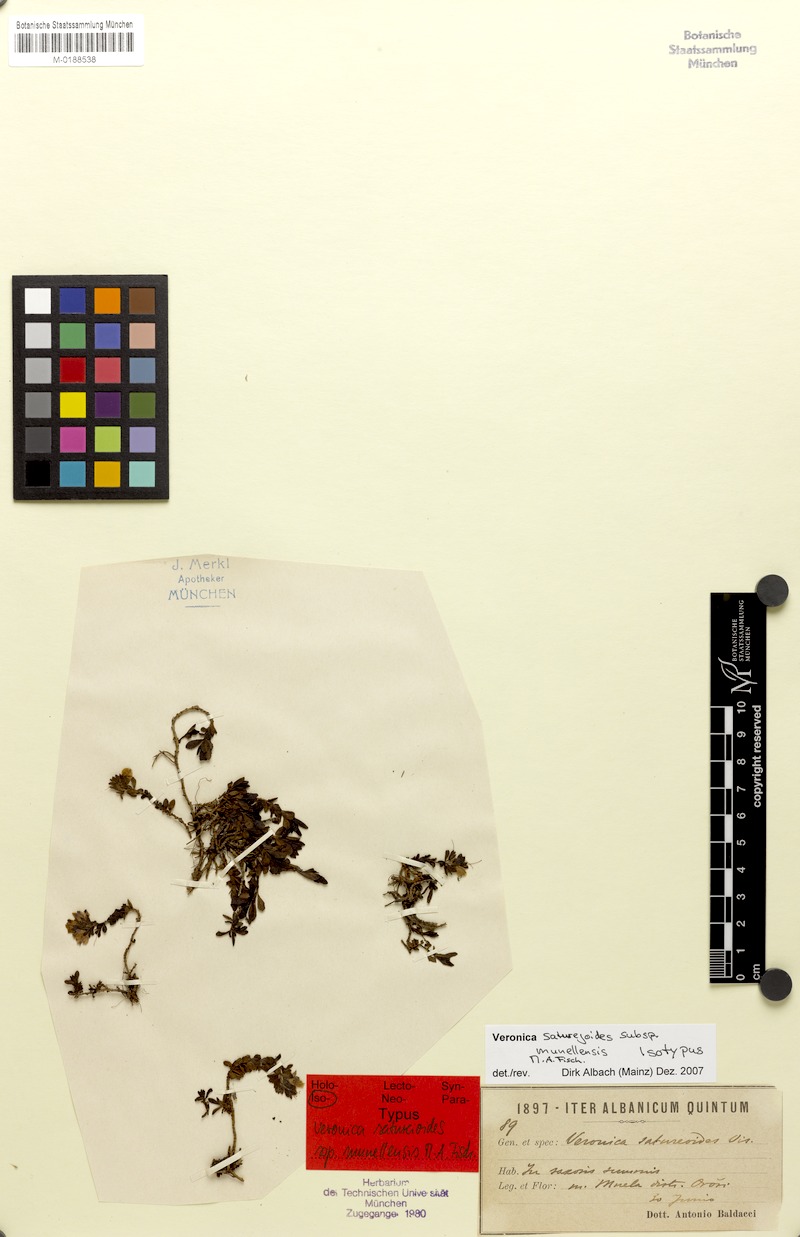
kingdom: Plantae
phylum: Tracheophyta
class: Magnoliopsida
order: Lamiales
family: Plantaginaceae
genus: Veronica
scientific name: Veronica saturejoides
